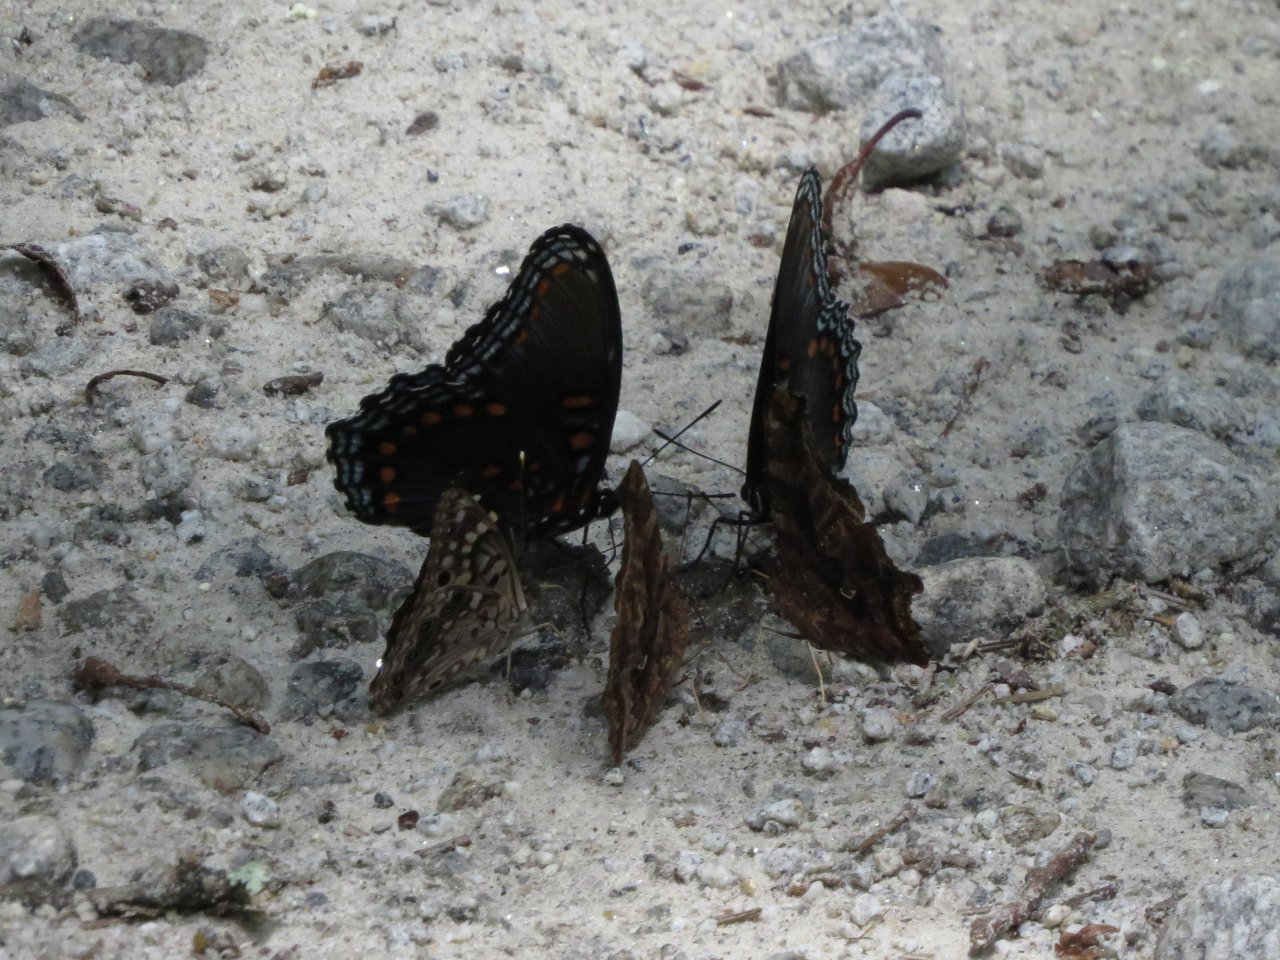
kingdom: Animalia
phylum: Arthropoda
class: Insecta
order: Lepidoptera
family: Nymphalidae
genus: Limenitis
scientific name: Limenitis astyanax
